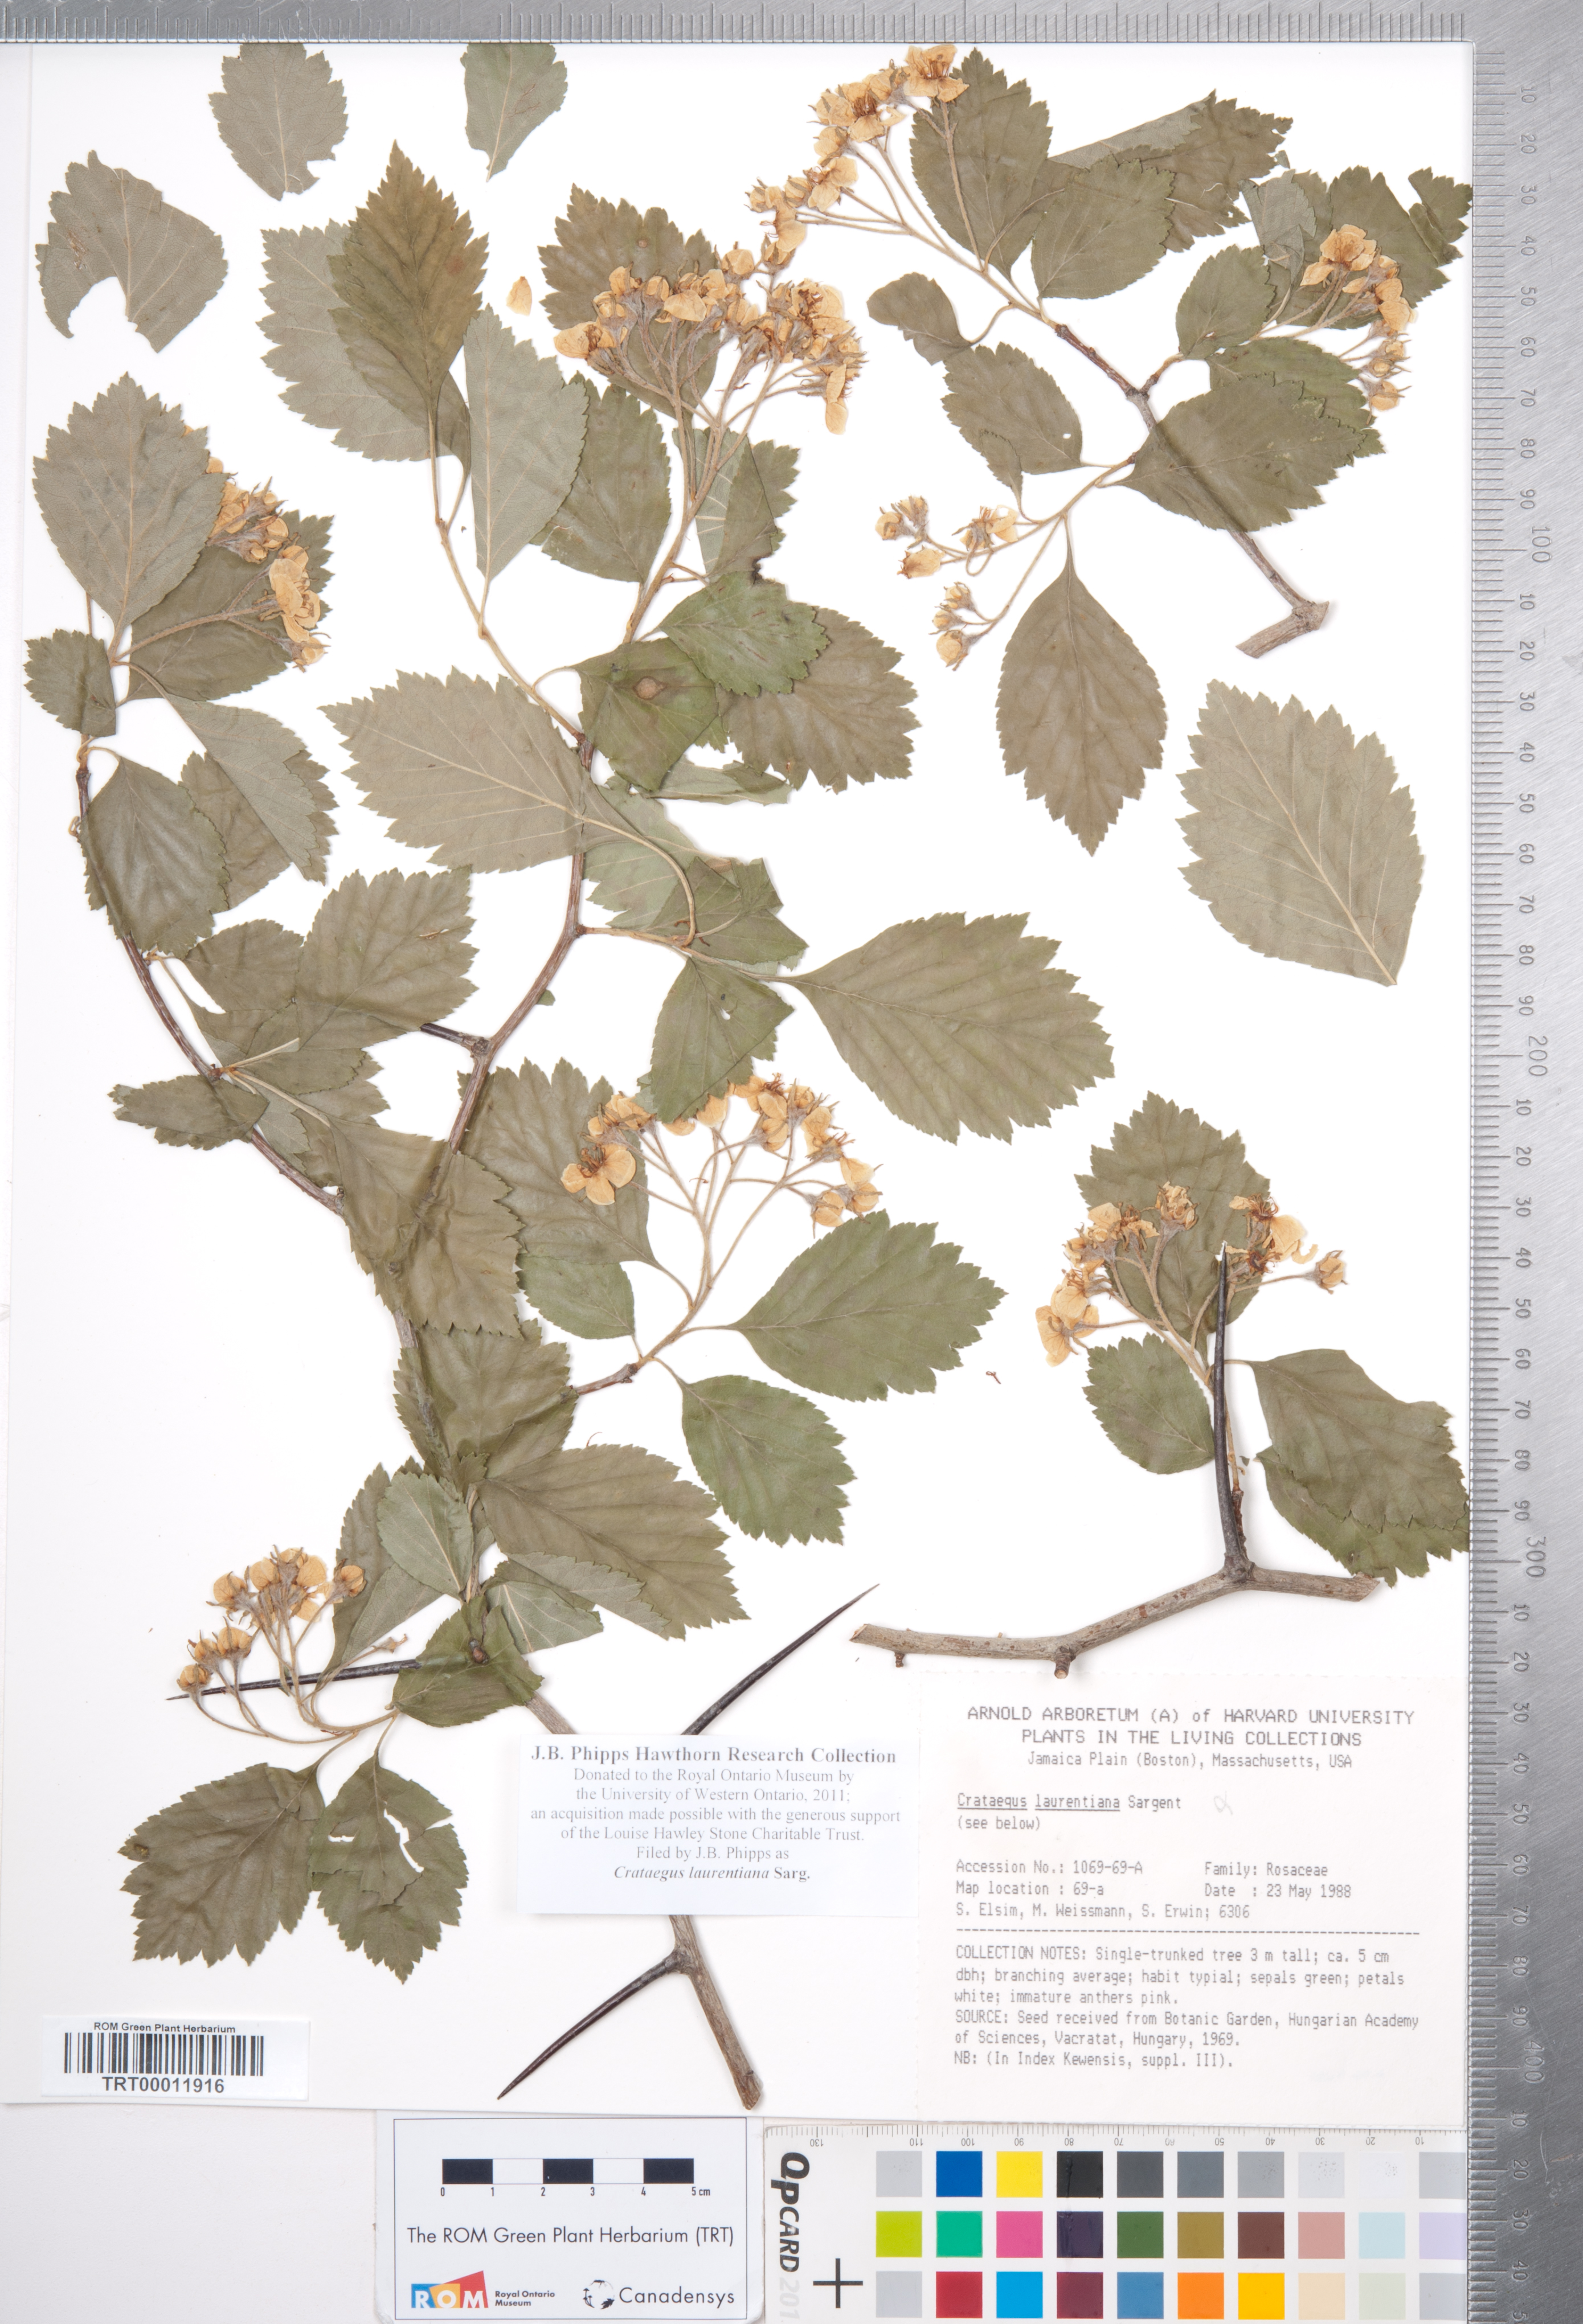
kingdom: Plantae
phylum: Tracheophyta
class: Magnoliopsida
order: Rosales
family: Rosaceae
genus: Crataegus
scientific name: Crataegus jonesiae
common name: Jones' hawthorn
